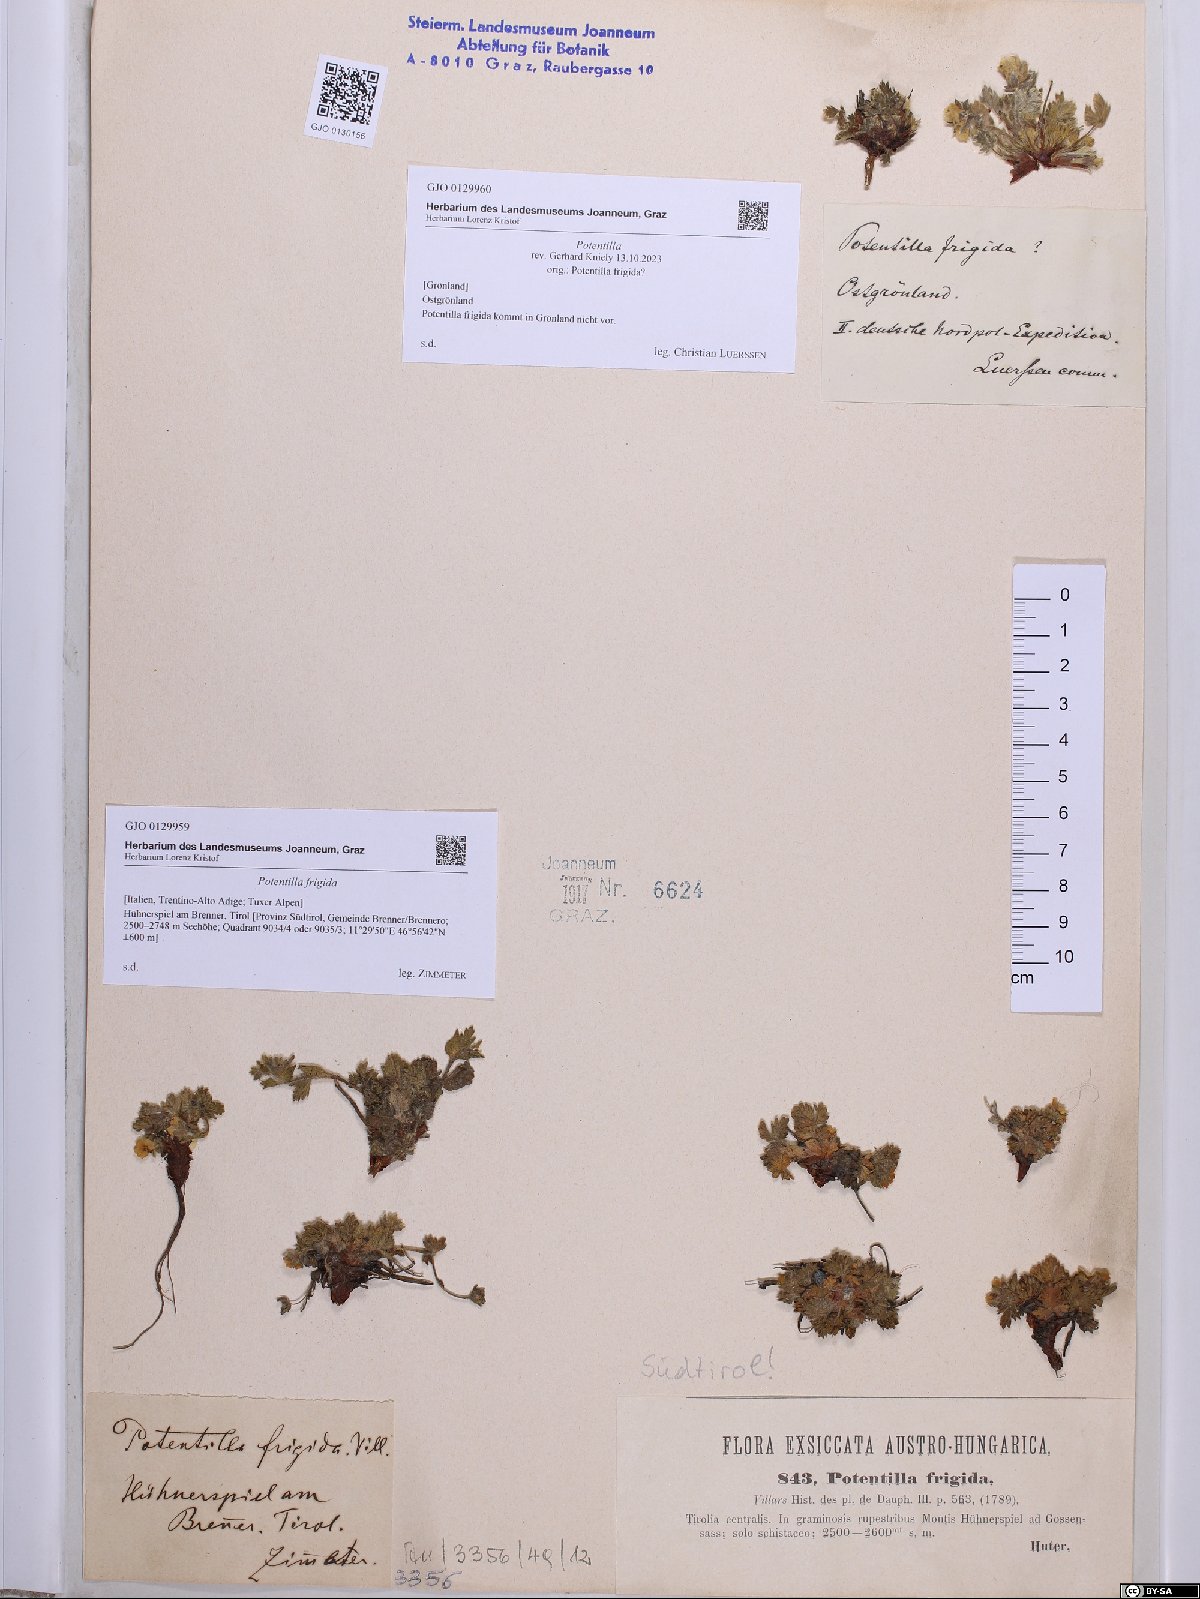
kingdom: Plantae
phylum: Tracheophyta
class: Magnoliopsida
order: Rosales
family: Rosaceae
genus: Potentilla
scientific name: Potentilla frigida
